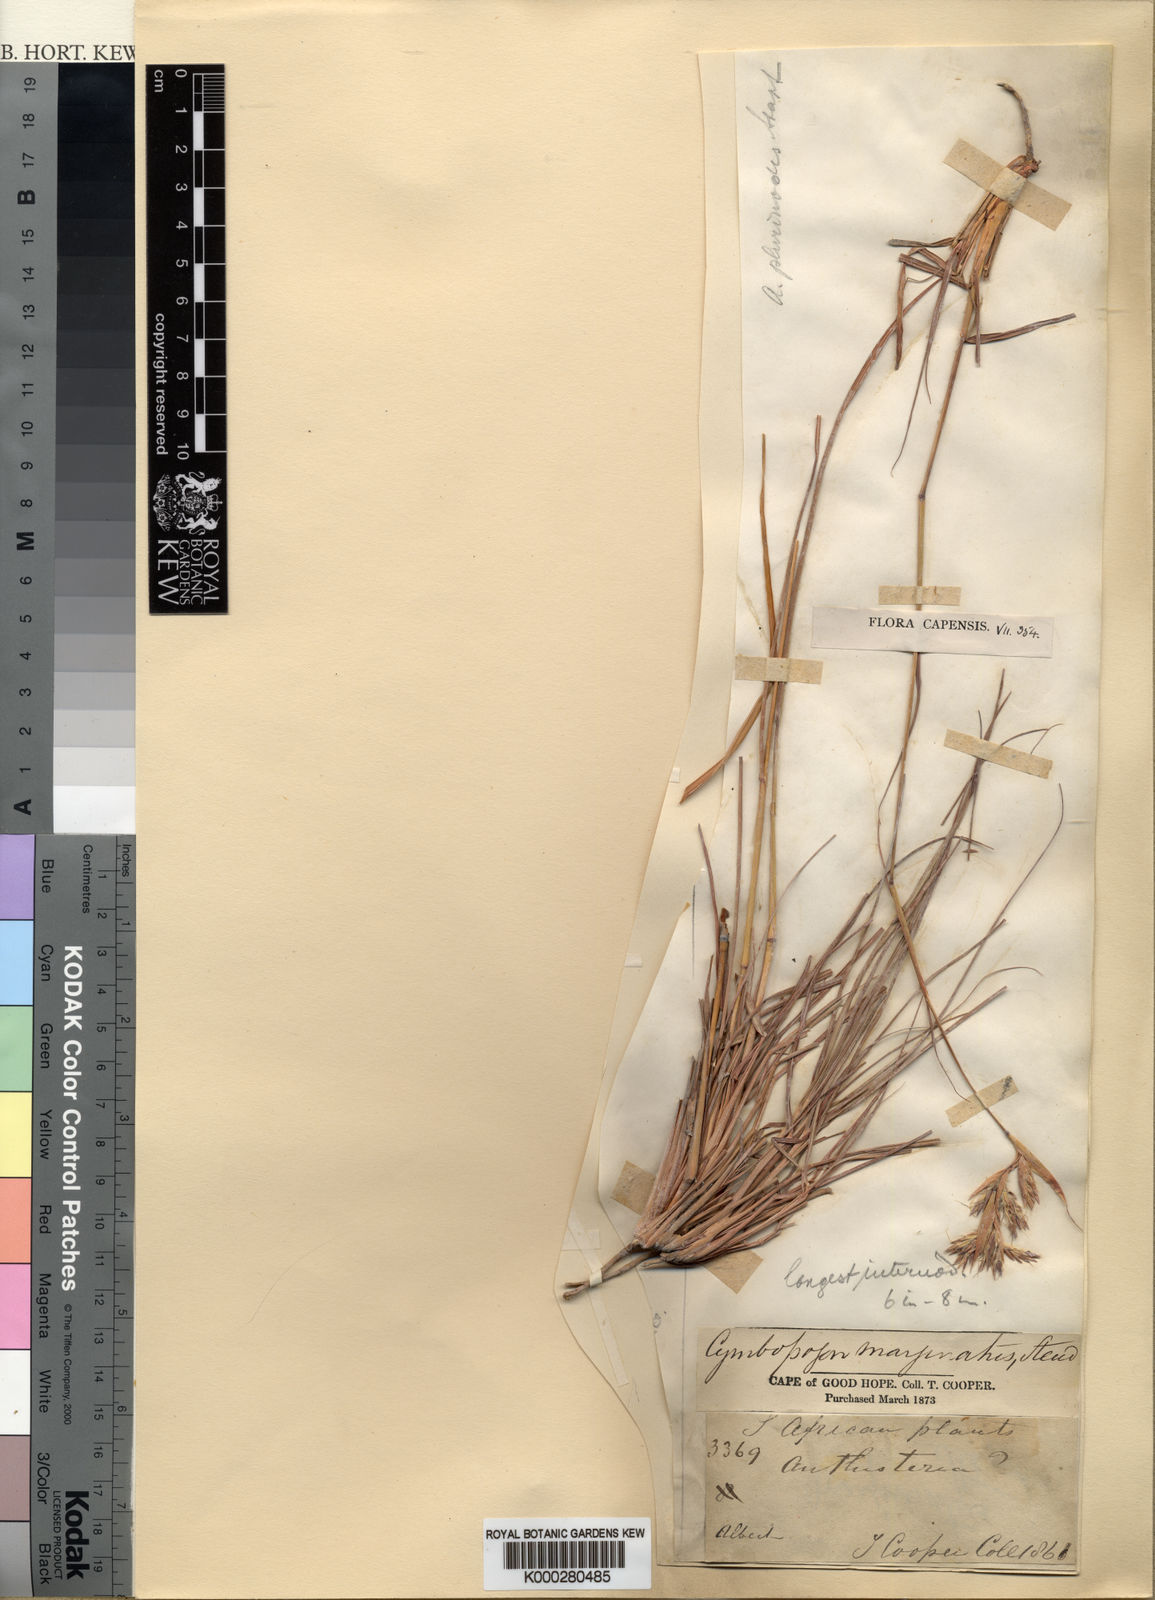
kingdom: Plantae
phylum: Tracheophyta
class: Liliopsida
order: Poales
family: Poaceae
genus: Cymbopogon
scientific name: Cymbopogon pospischilii
